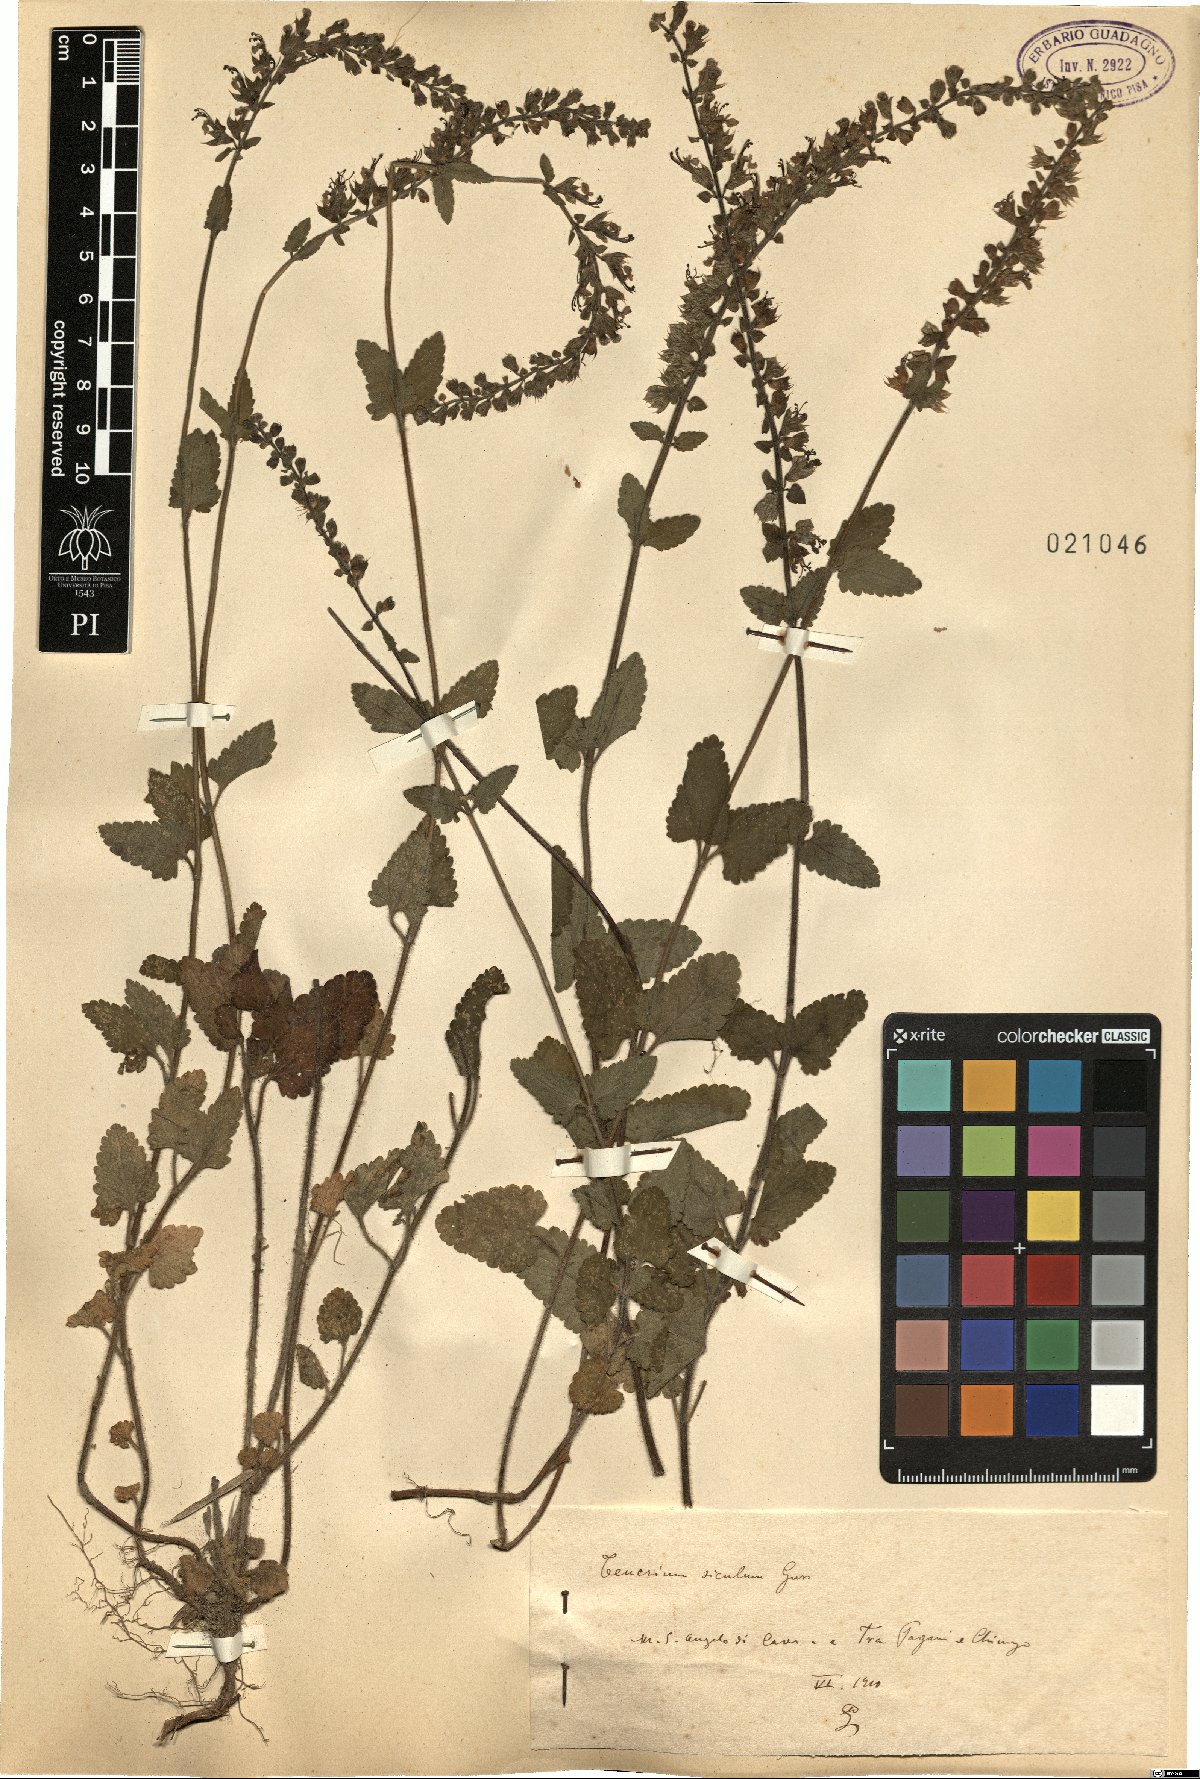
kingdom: Plantae
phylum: Tracheophyta
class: Magnoliopsida
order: Lamiales
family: Lamiaceae
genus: Teucrium
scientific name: Teucrium siculum
